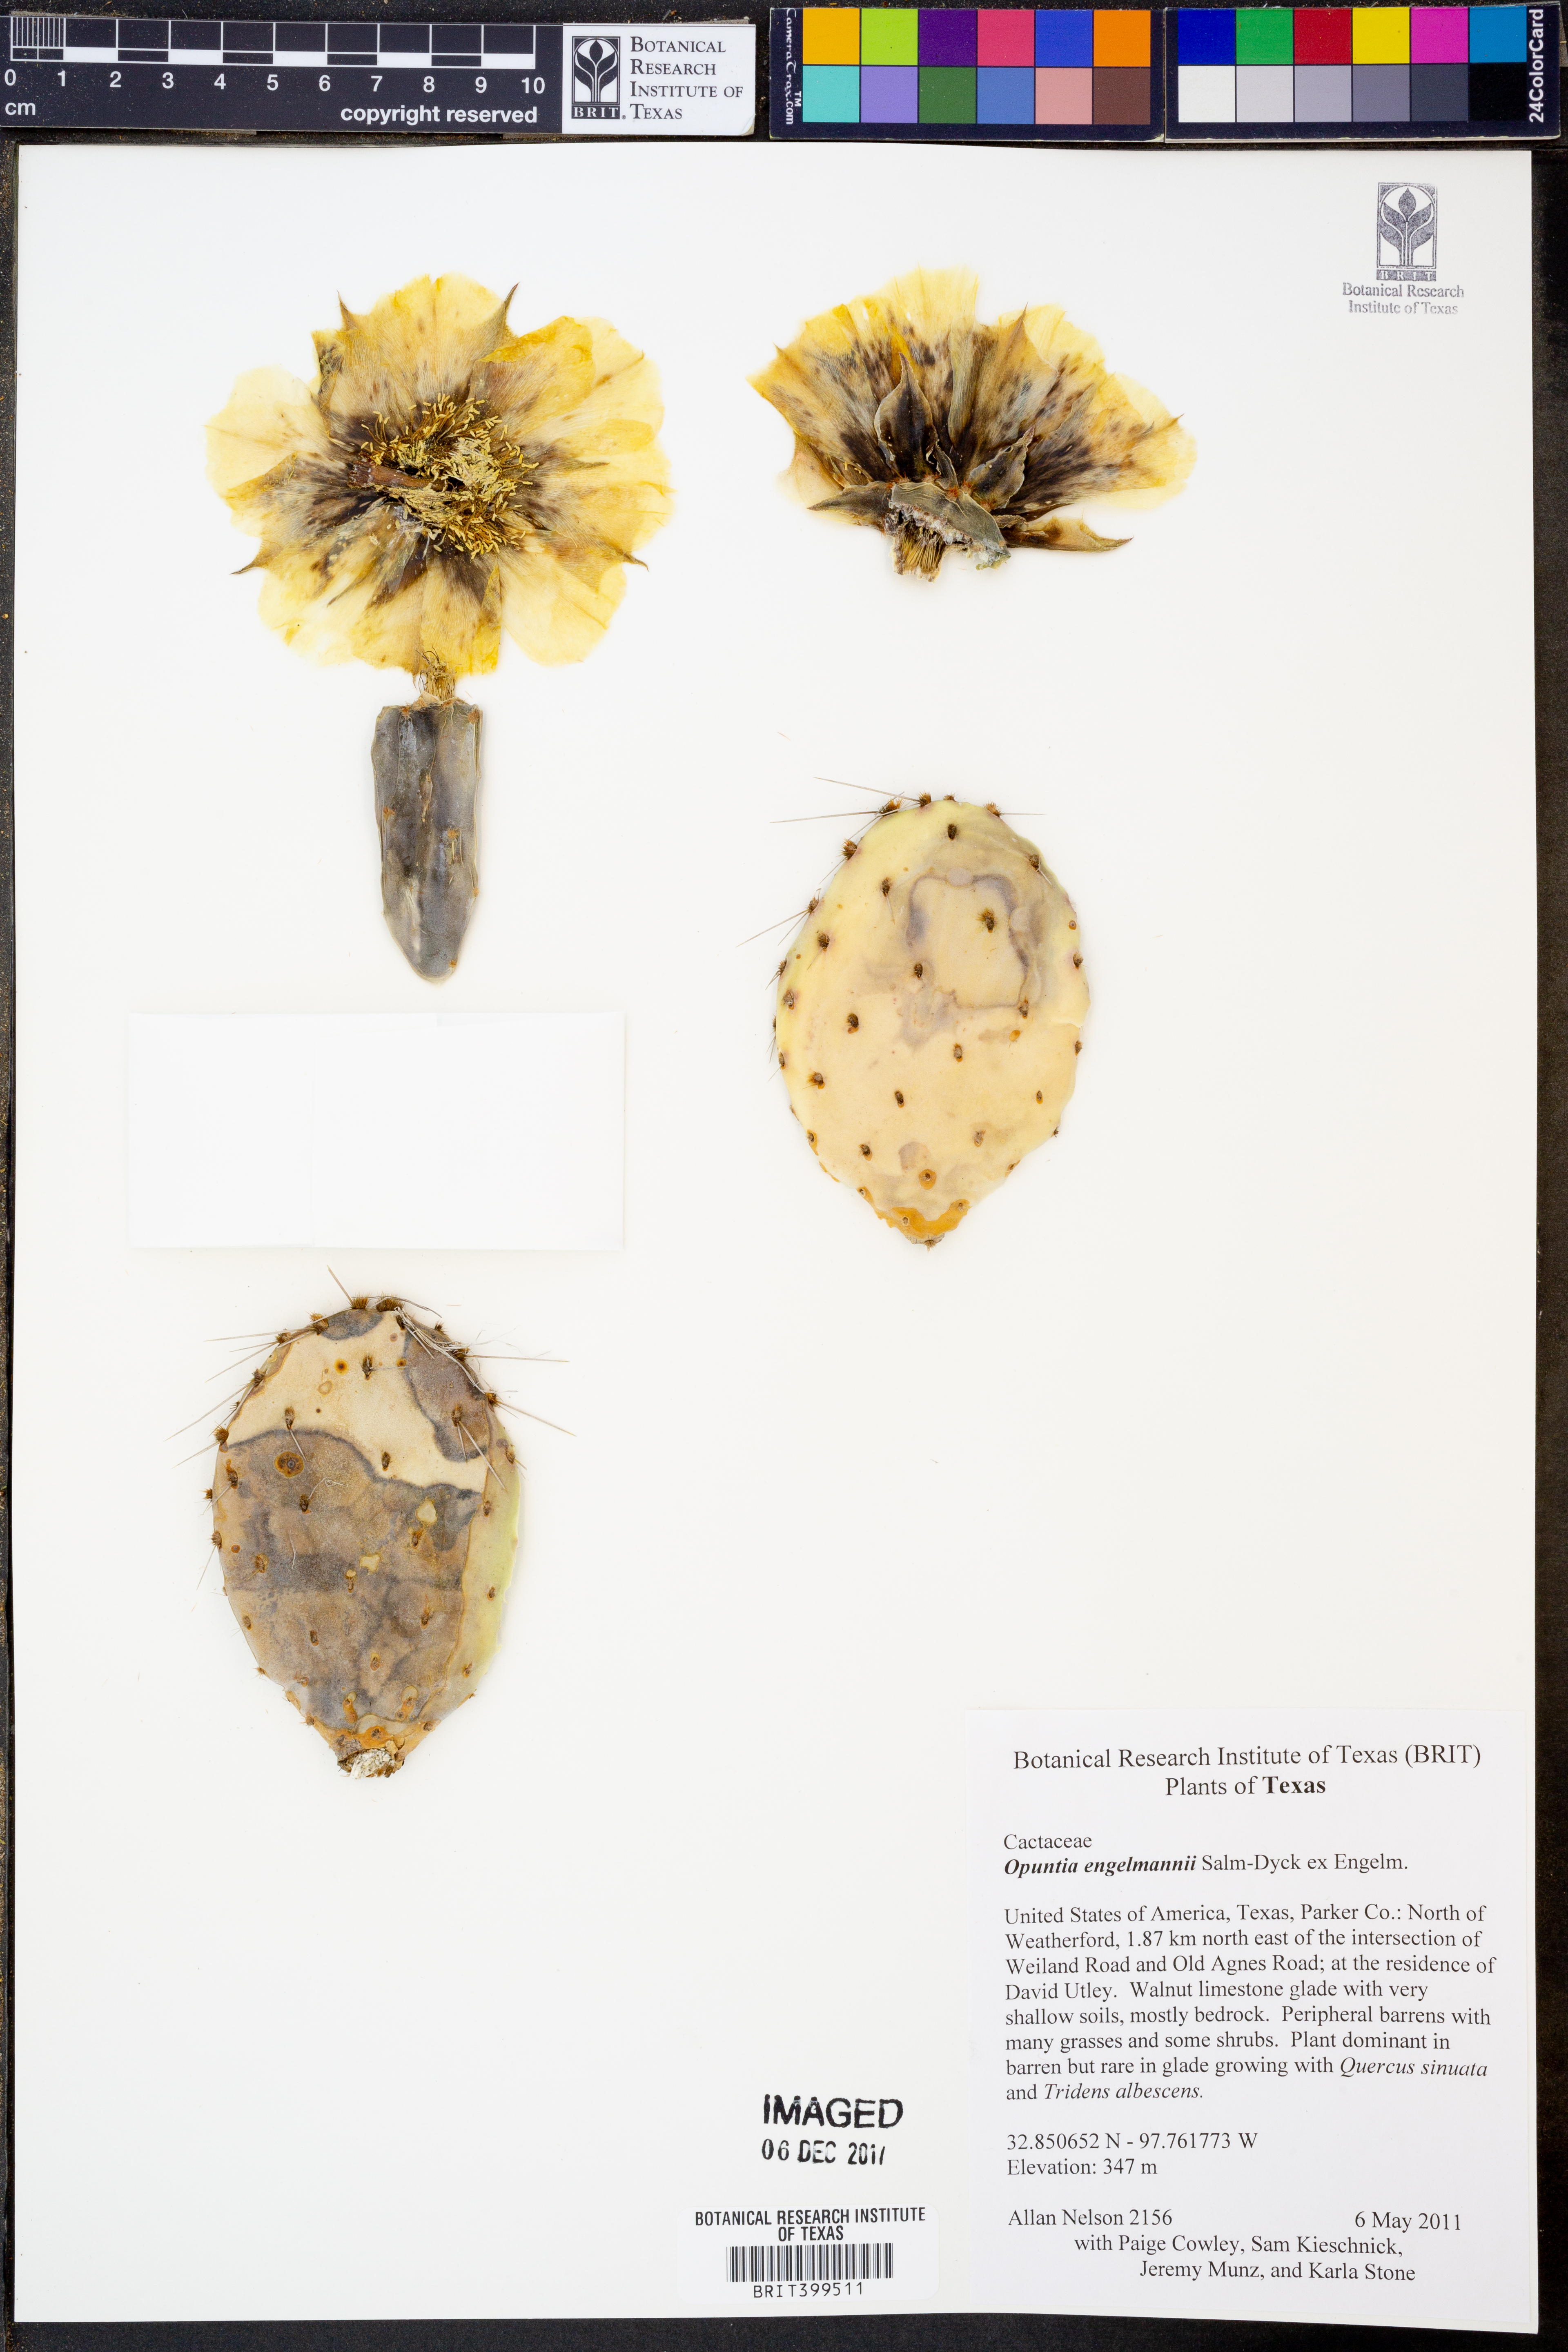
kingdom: Plantae
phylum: Tracheophyta
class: Magnoliopsida
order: Caryophyllales
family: Cactaceae
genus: Opuntia
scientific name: Opuntia engelmannii
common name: Cactus-apple
